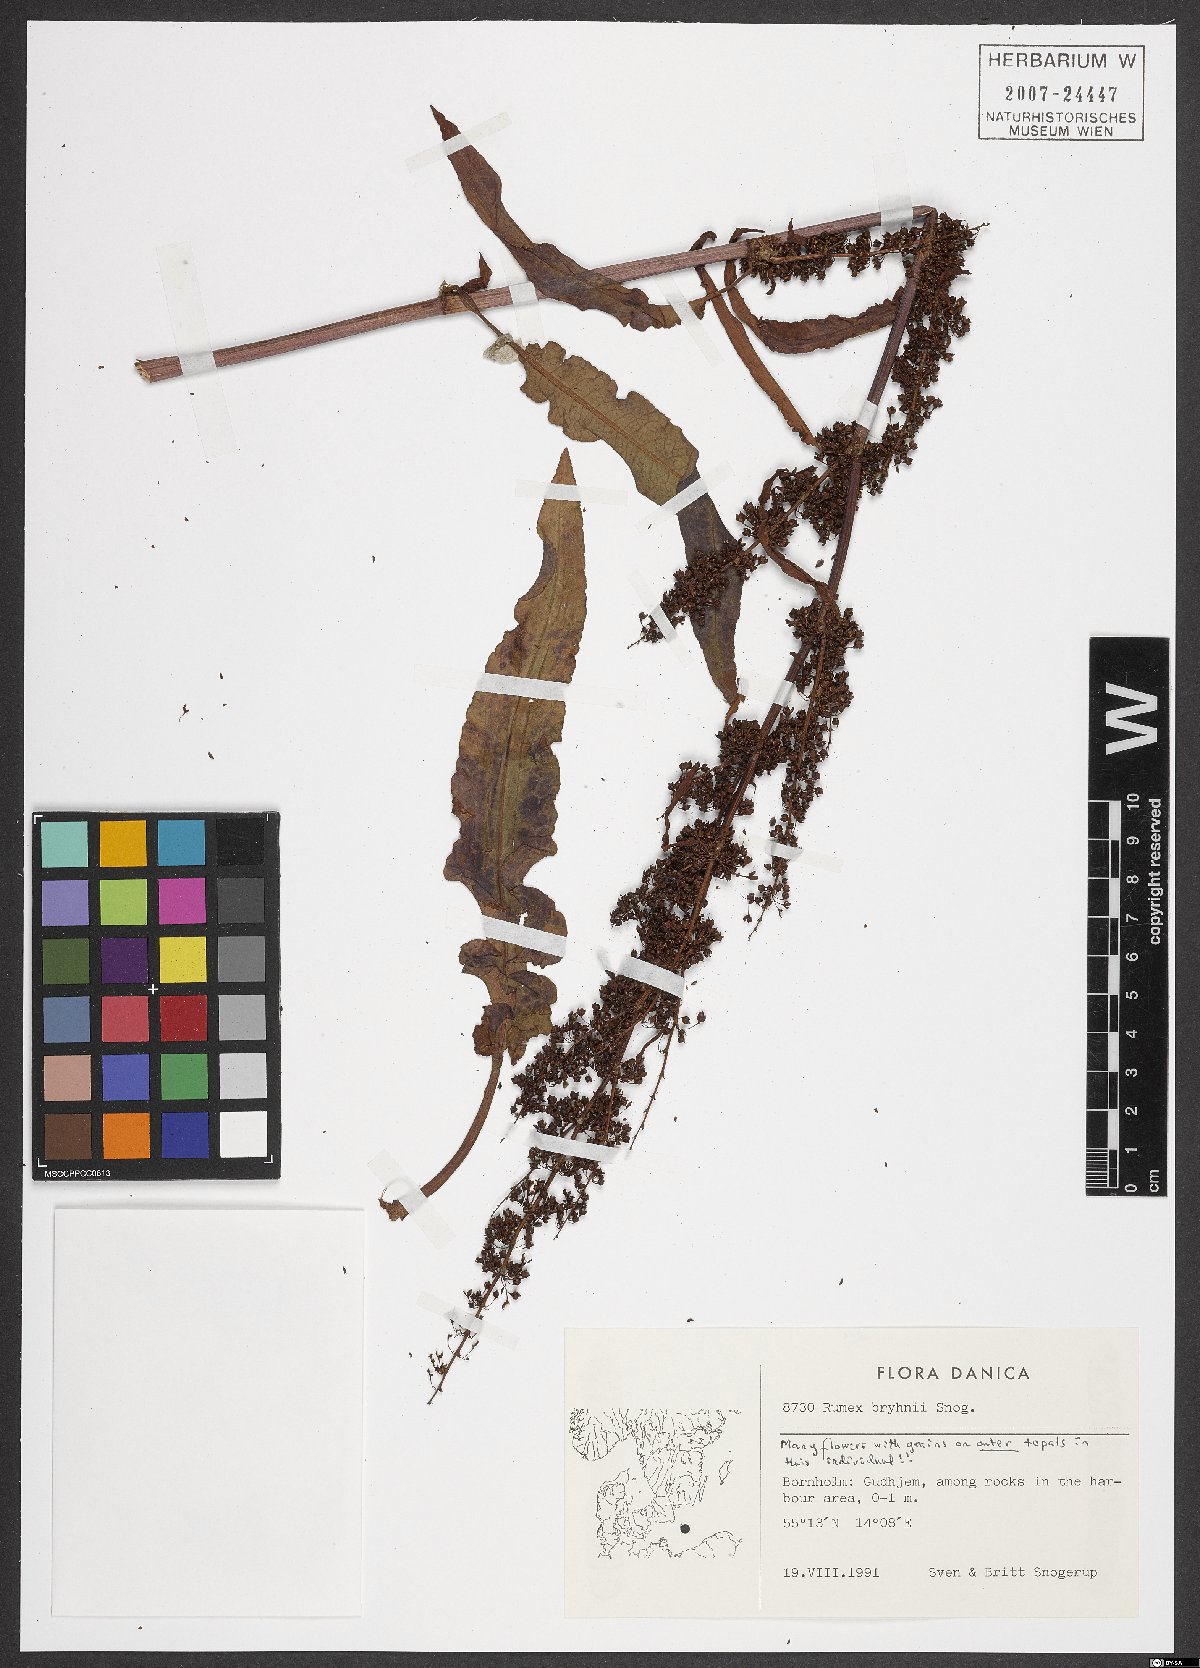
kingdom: Plantae
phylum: Tracheophyta
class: Magnoliopsida
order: Caryophyllales
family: Polygonaceae
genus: Rumex
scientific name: Rumex bryhnii
